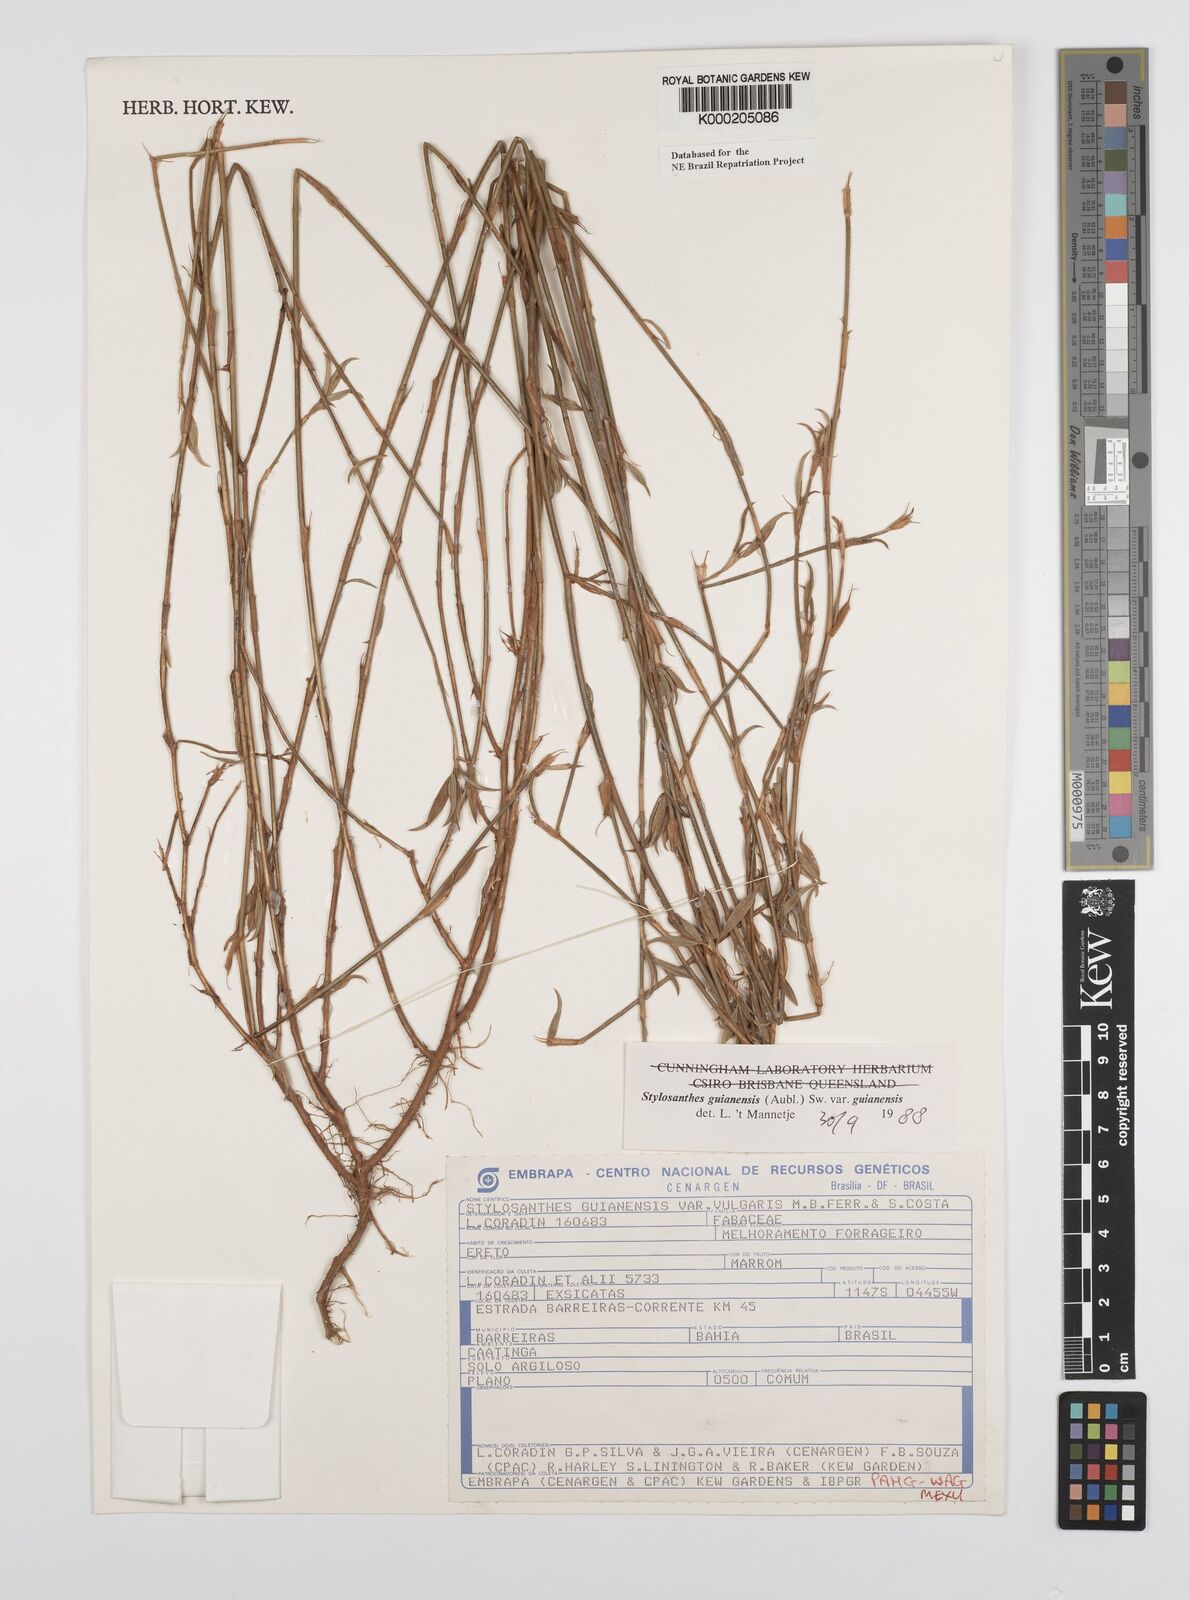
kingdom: Plantae
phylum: Tracheophyta
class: Magnoliopsida
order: Fabales
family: Fabaceae
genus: Stylosanthes
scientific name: Stylosanthes guianensis
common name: Pencil flower
